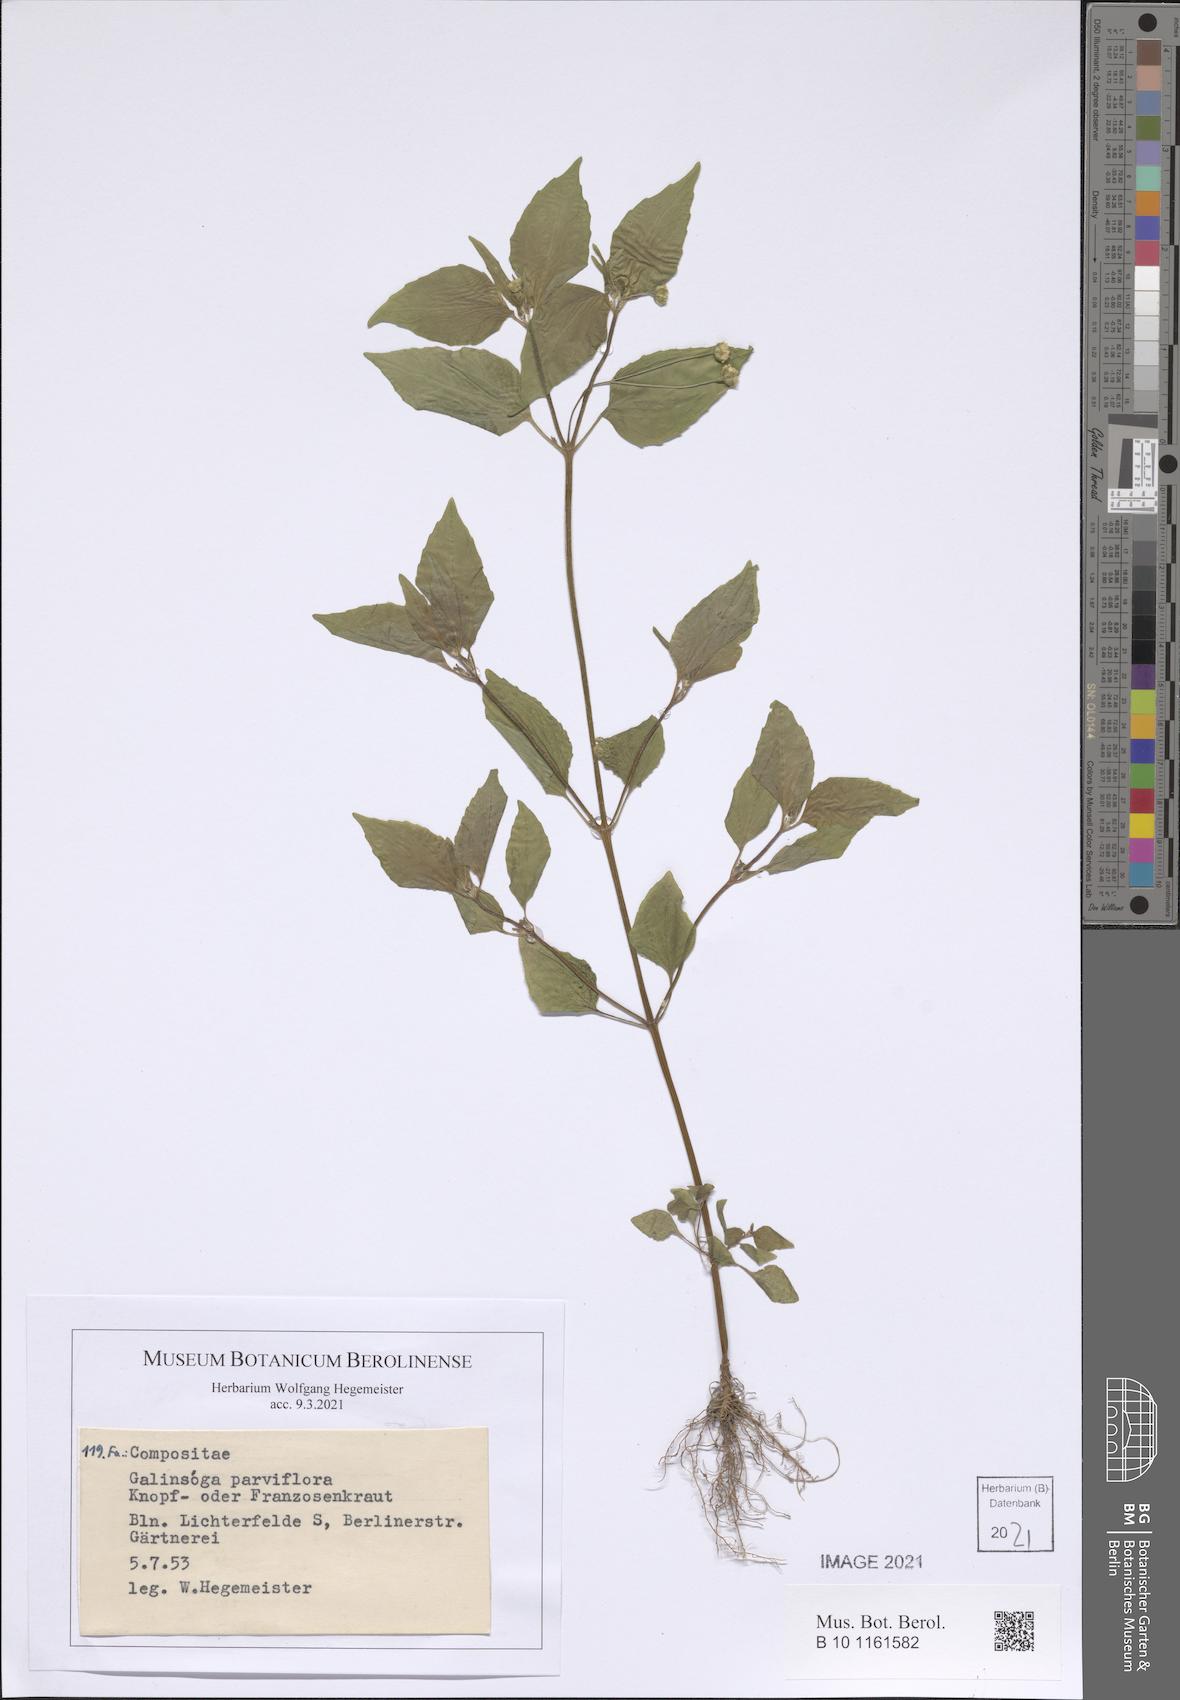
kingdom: Plantae
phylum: Tracheophyta
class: Magnoliopsida
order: Asterales
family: Asteraceae
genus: Galinsoga
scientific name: Galinsoga parviflora
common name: Gallant soldier
